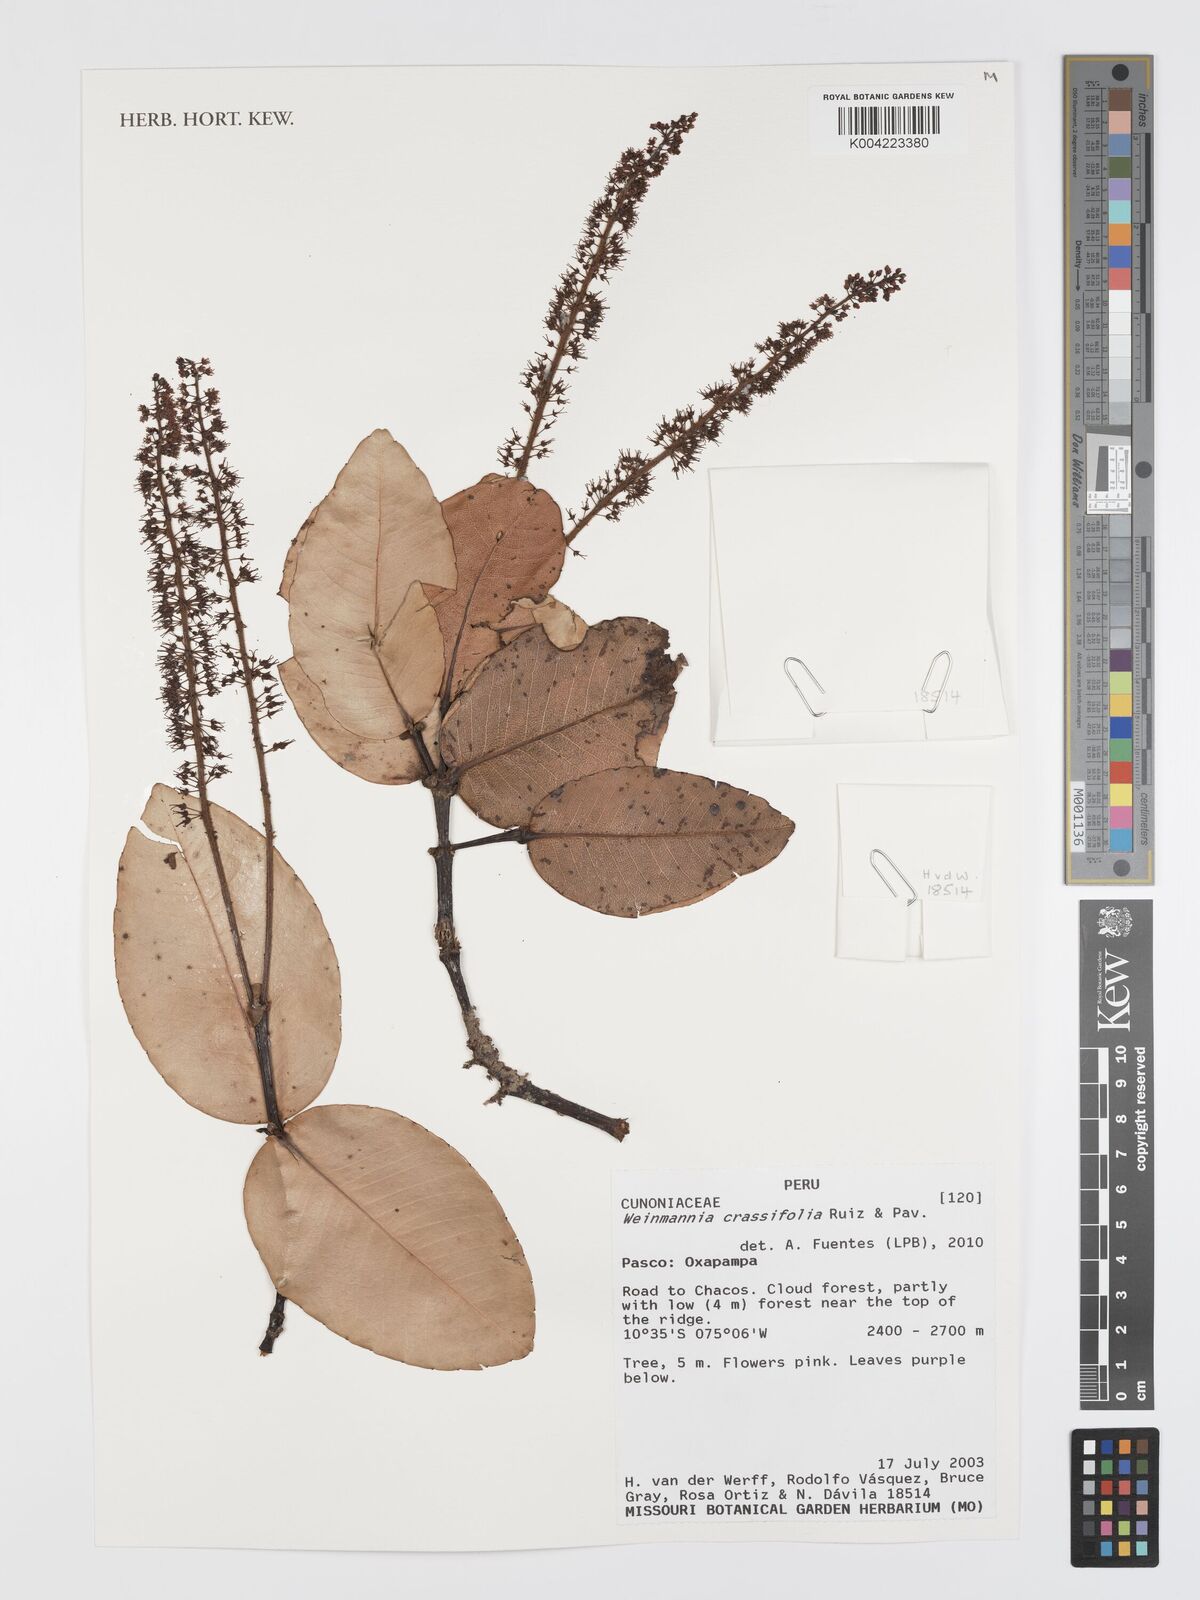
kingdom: Plantae
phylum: Tracheophyta
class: Magnoliopsida
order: Oxalidales
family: Cunoniaceae
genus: Weinmannia
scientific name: Weinmannia crassifolia
